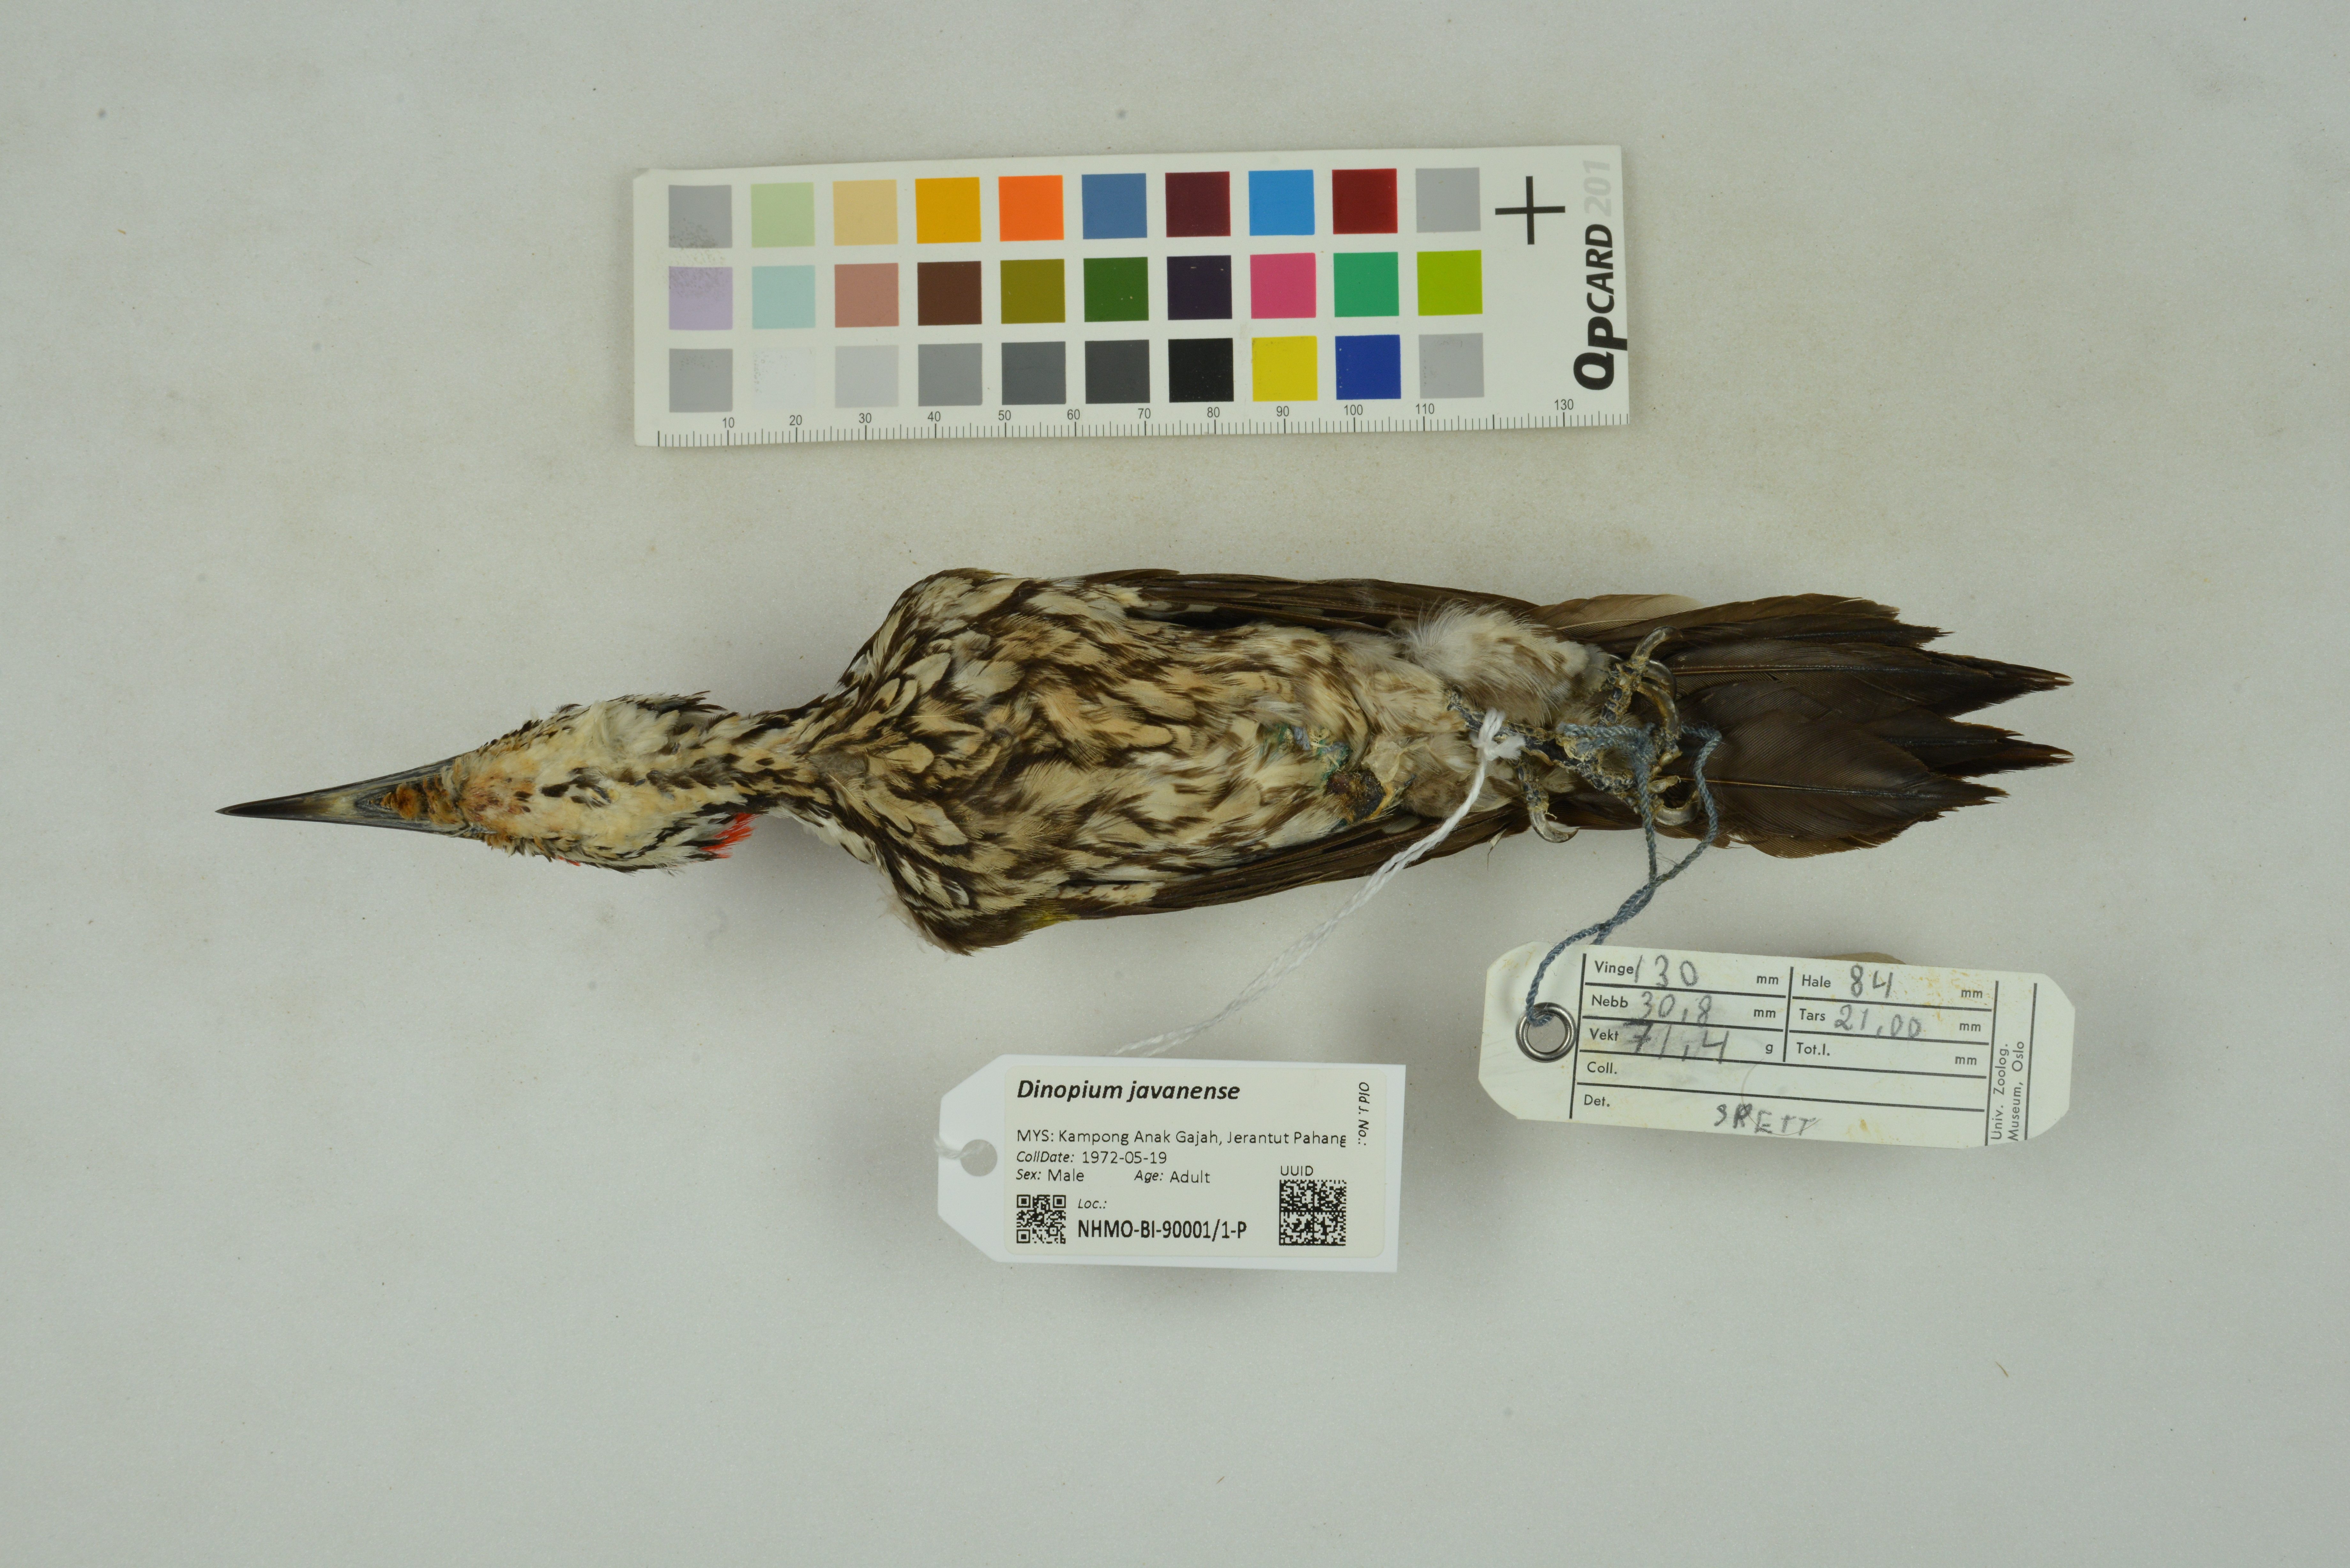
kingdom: Animalia
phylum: Chordata
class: Aves
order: Piciformes
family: Picidae
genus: Dinopium
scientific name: Dinopium javanense
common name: Common flameback
